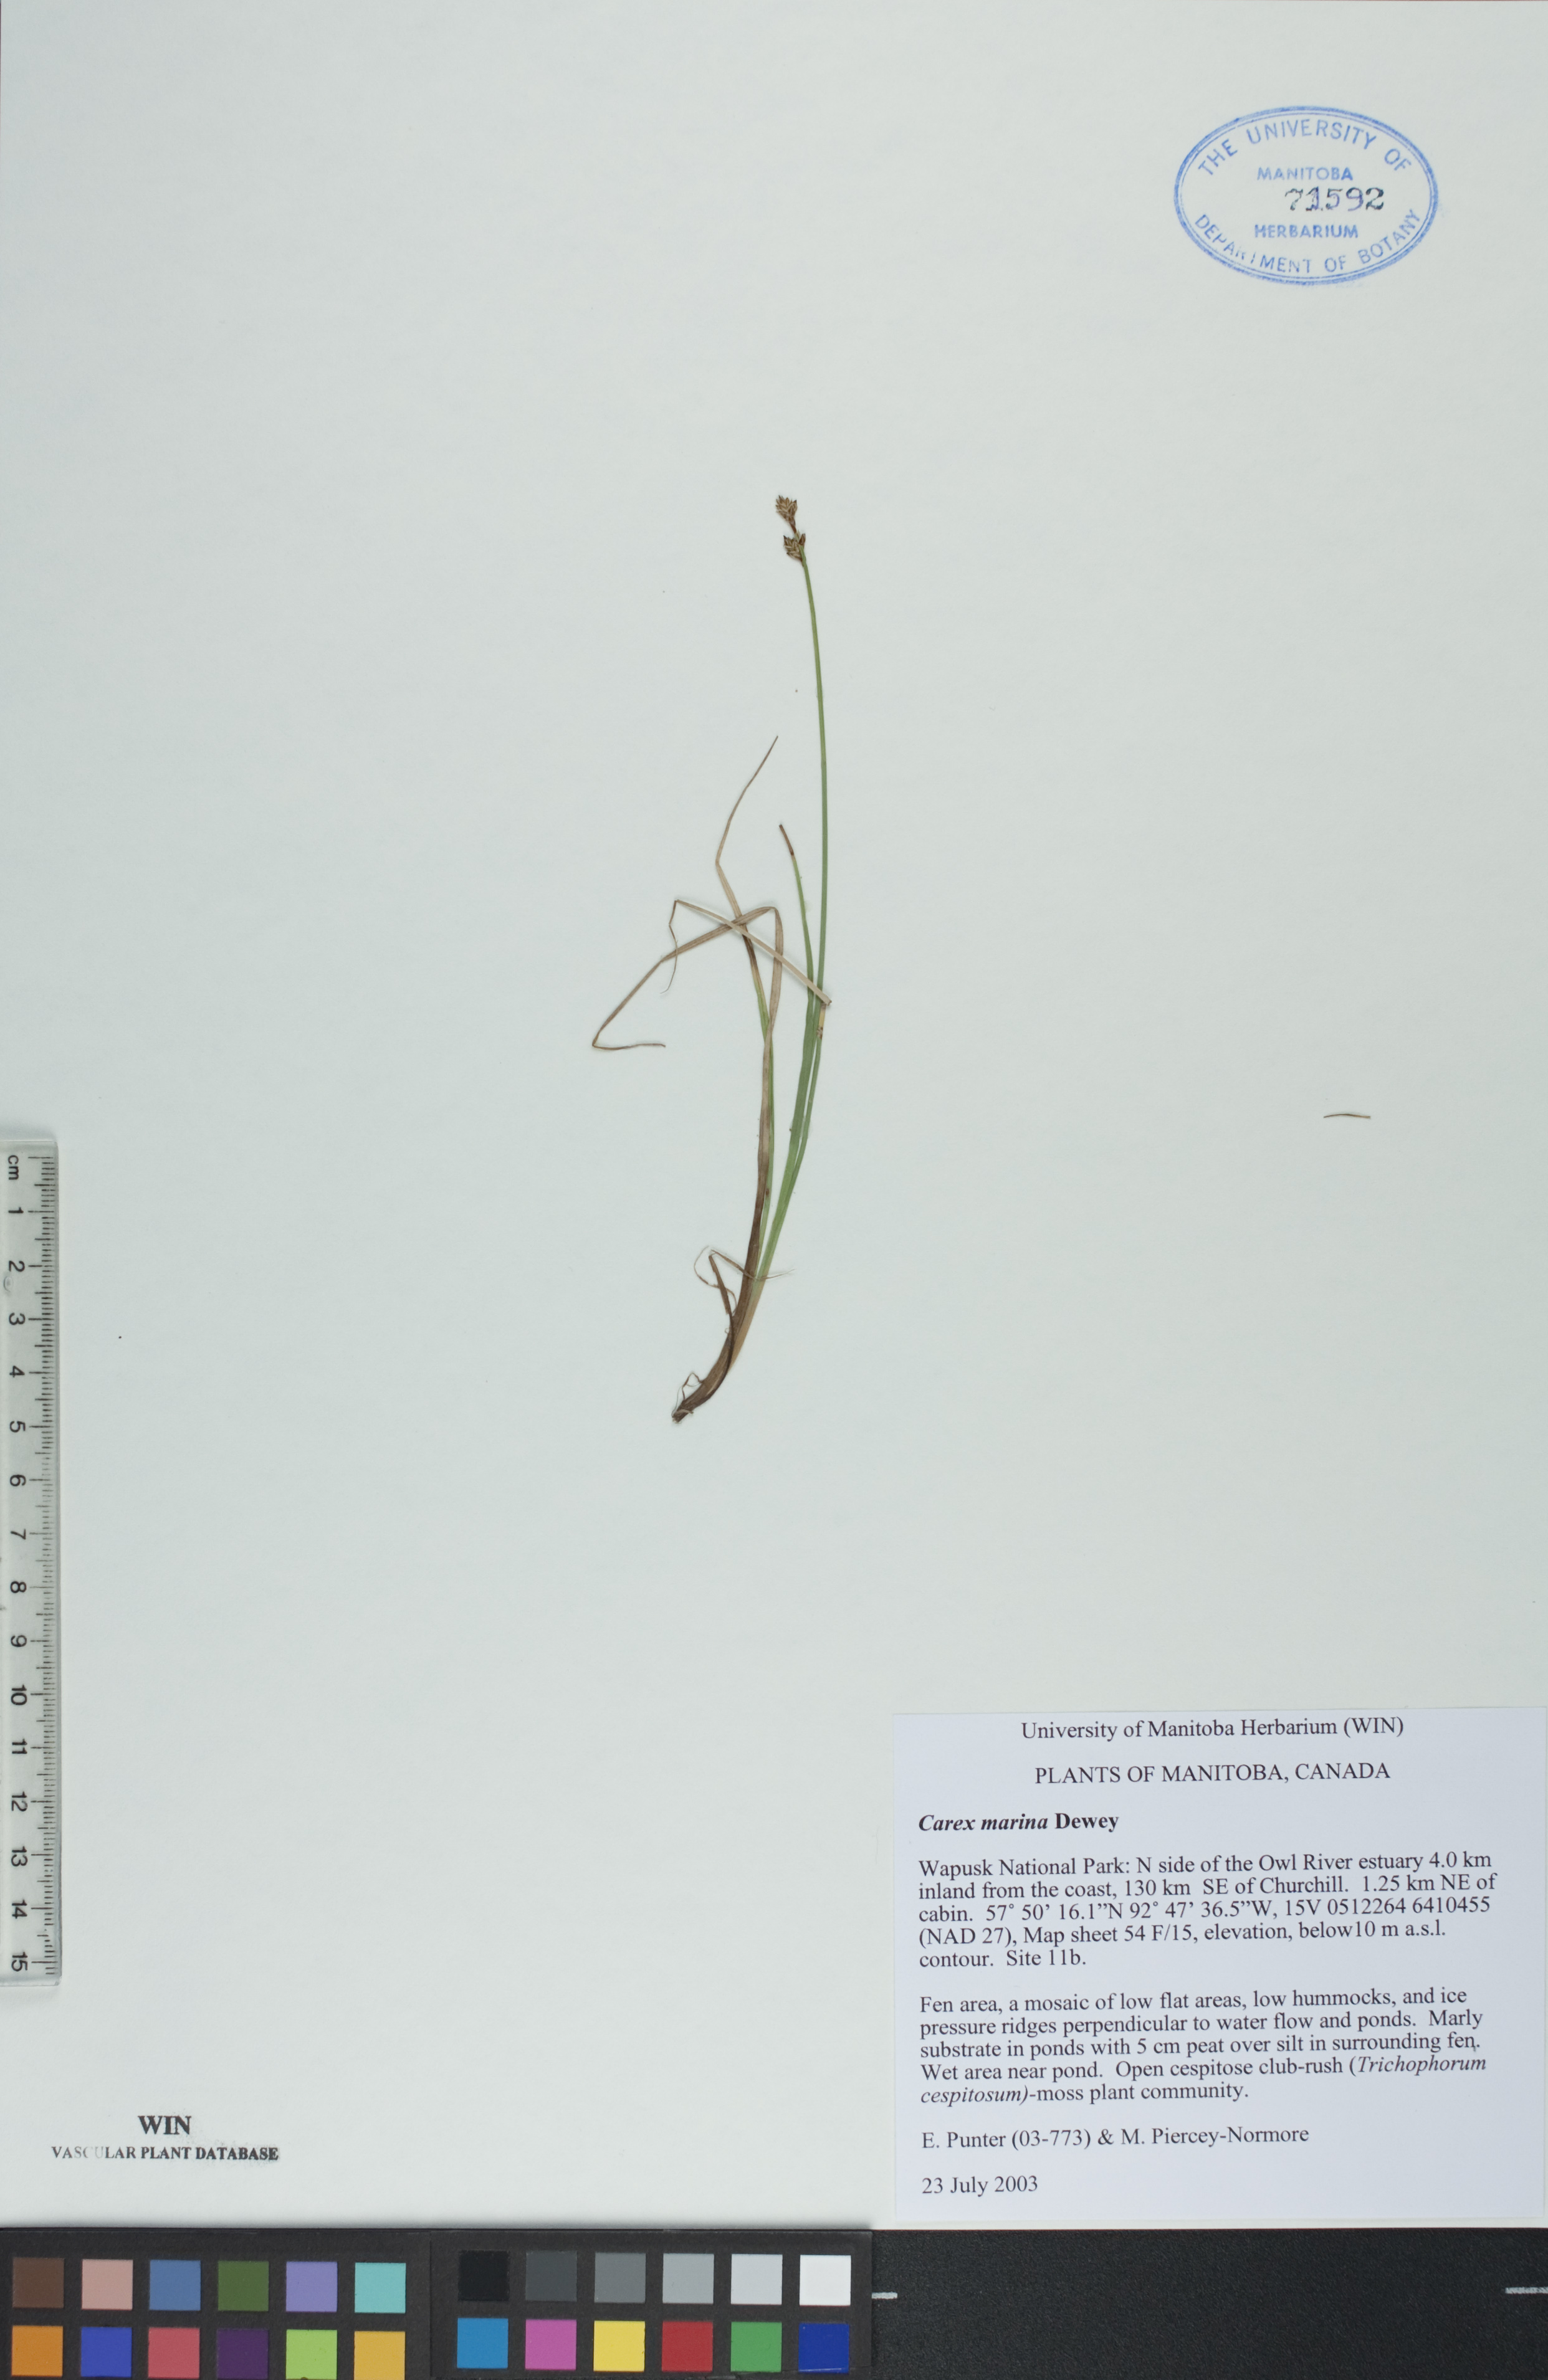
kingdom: Plantae
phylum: Tracheophyta
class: Liliopsida
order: Poales
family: Cyperaceae
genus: Carex
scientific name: Carex marina
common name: Seashore sedge
